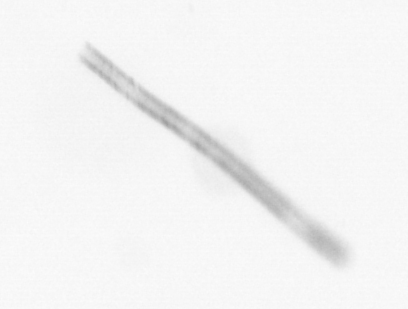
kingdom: Chromista
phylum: Ochrophyta
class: Bacillariophyceae
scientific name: Bacillariophyceae
